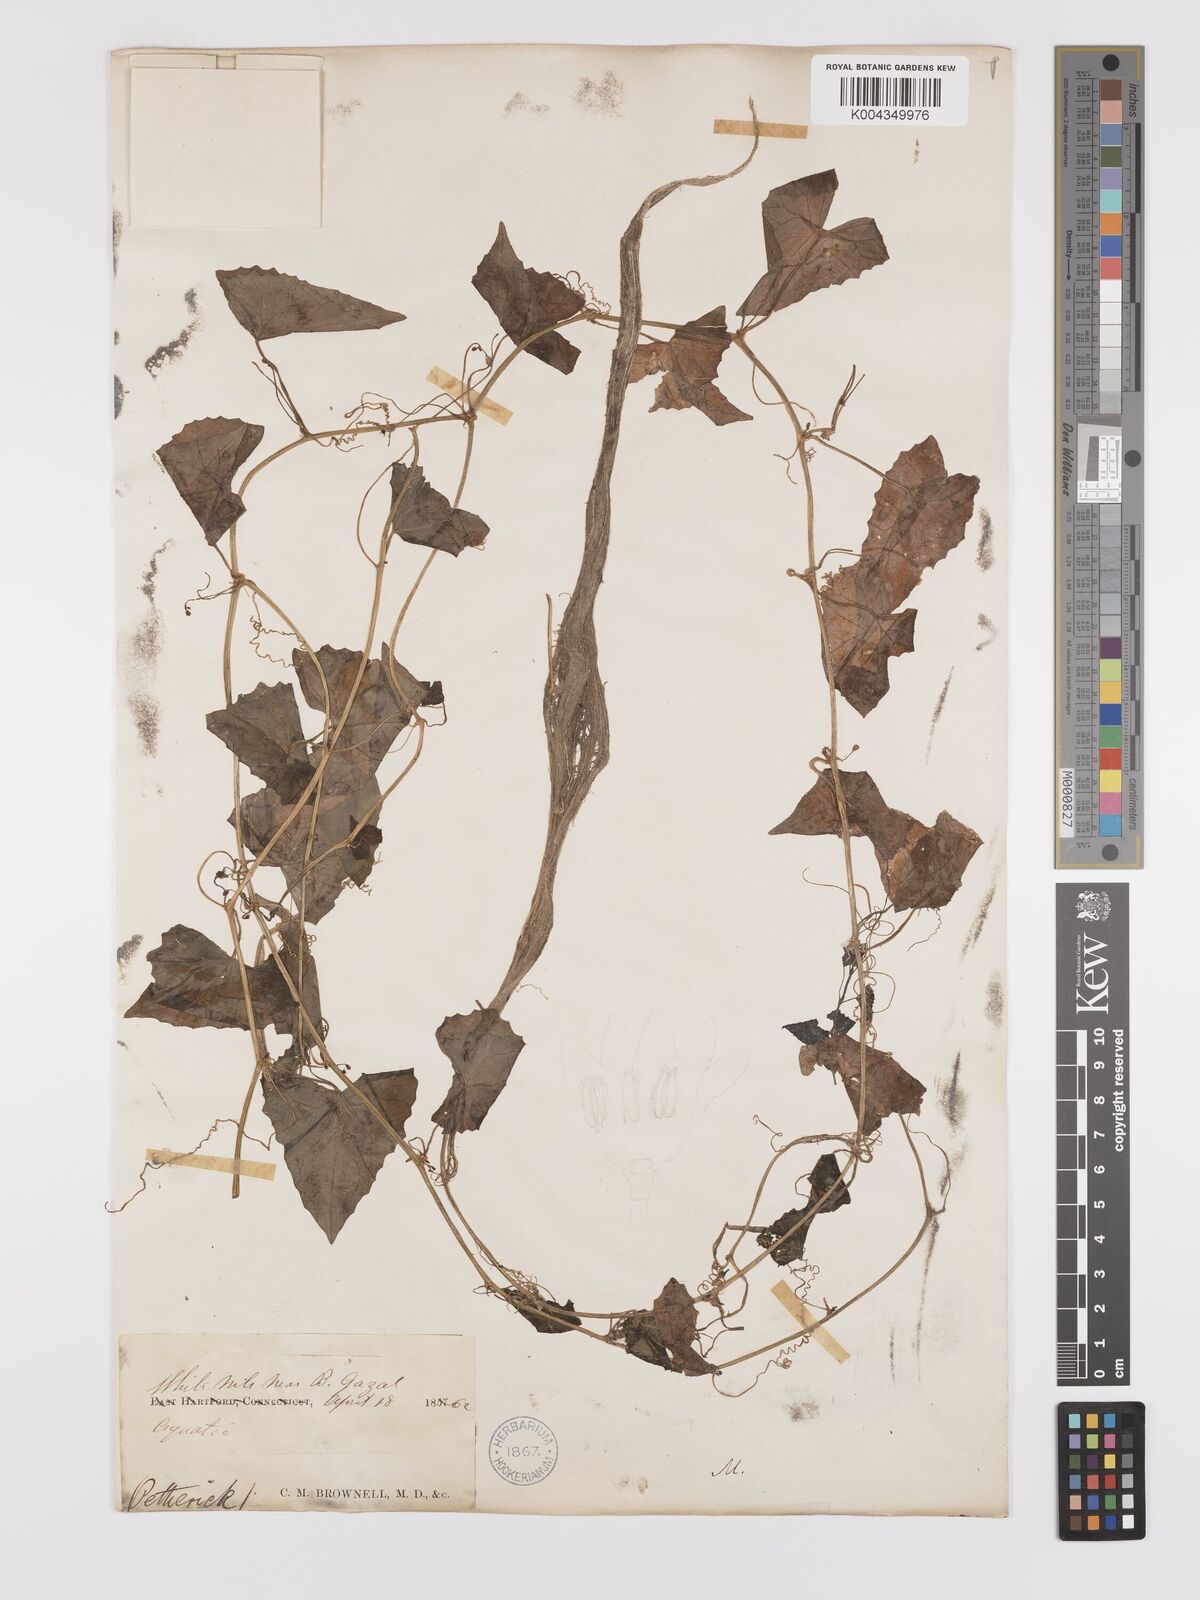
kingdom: Plantae
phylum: Tracheophyta
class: Magnoliopsida
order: Cucurbitales
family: Cucurbitaceae
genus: Zehneria
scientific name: Zehneria peneyana
